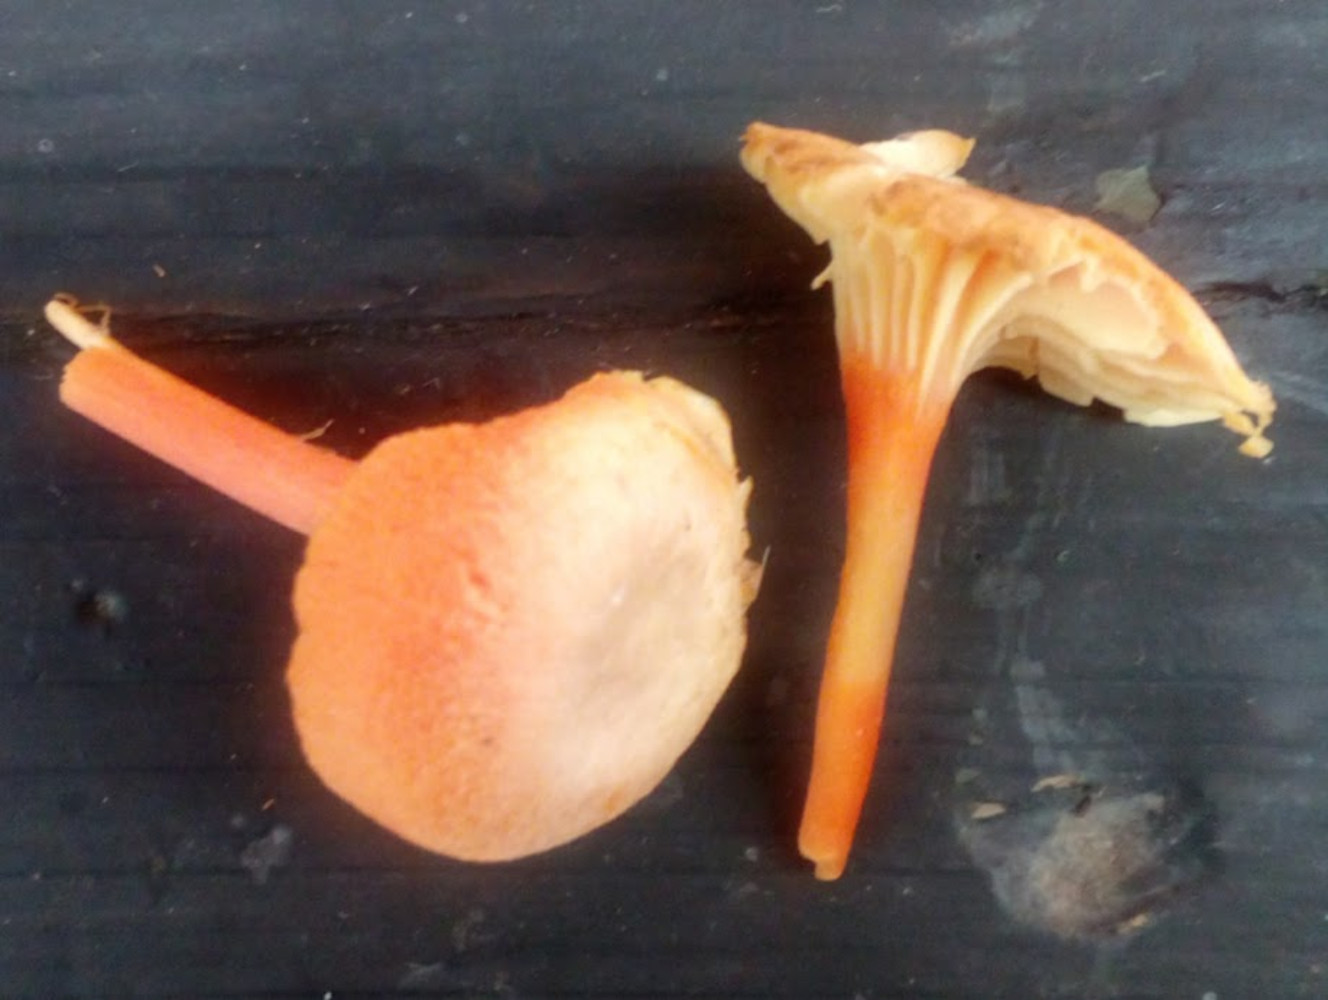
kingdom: Fungi
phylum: Basidiomycota
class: Agaricomycetes
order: Agaricales
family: Hygrophoraceae
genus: Hygrocybe
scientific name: Hygrocybe cantharellus
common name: kantarel-vokshat
